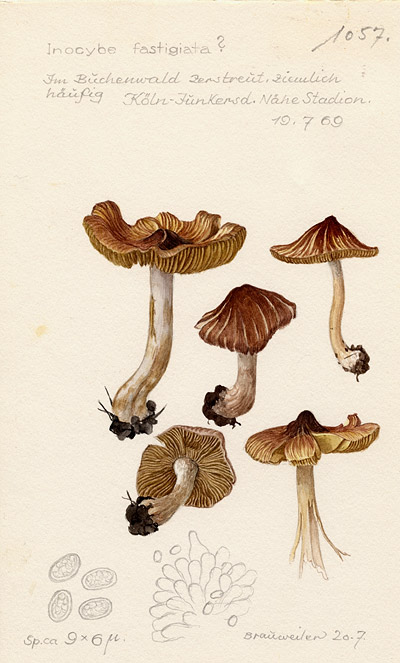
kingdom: Fungi
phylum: Basidiomycota
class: Agaricomycetes
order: Agaricales
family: Inocybaceae
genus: Pseudosperma
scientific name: Pseudosperma rimosum
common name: Split fibrecap
